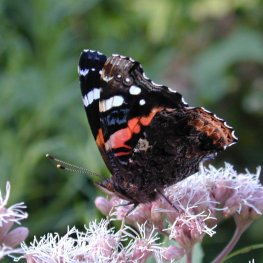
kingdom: Animalia
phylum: Arthropoda
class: Insecta
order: Lepidoptera
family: Nymphalidae
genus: Vanessa
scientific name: Vanessa atalanta
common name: Red Admiral
